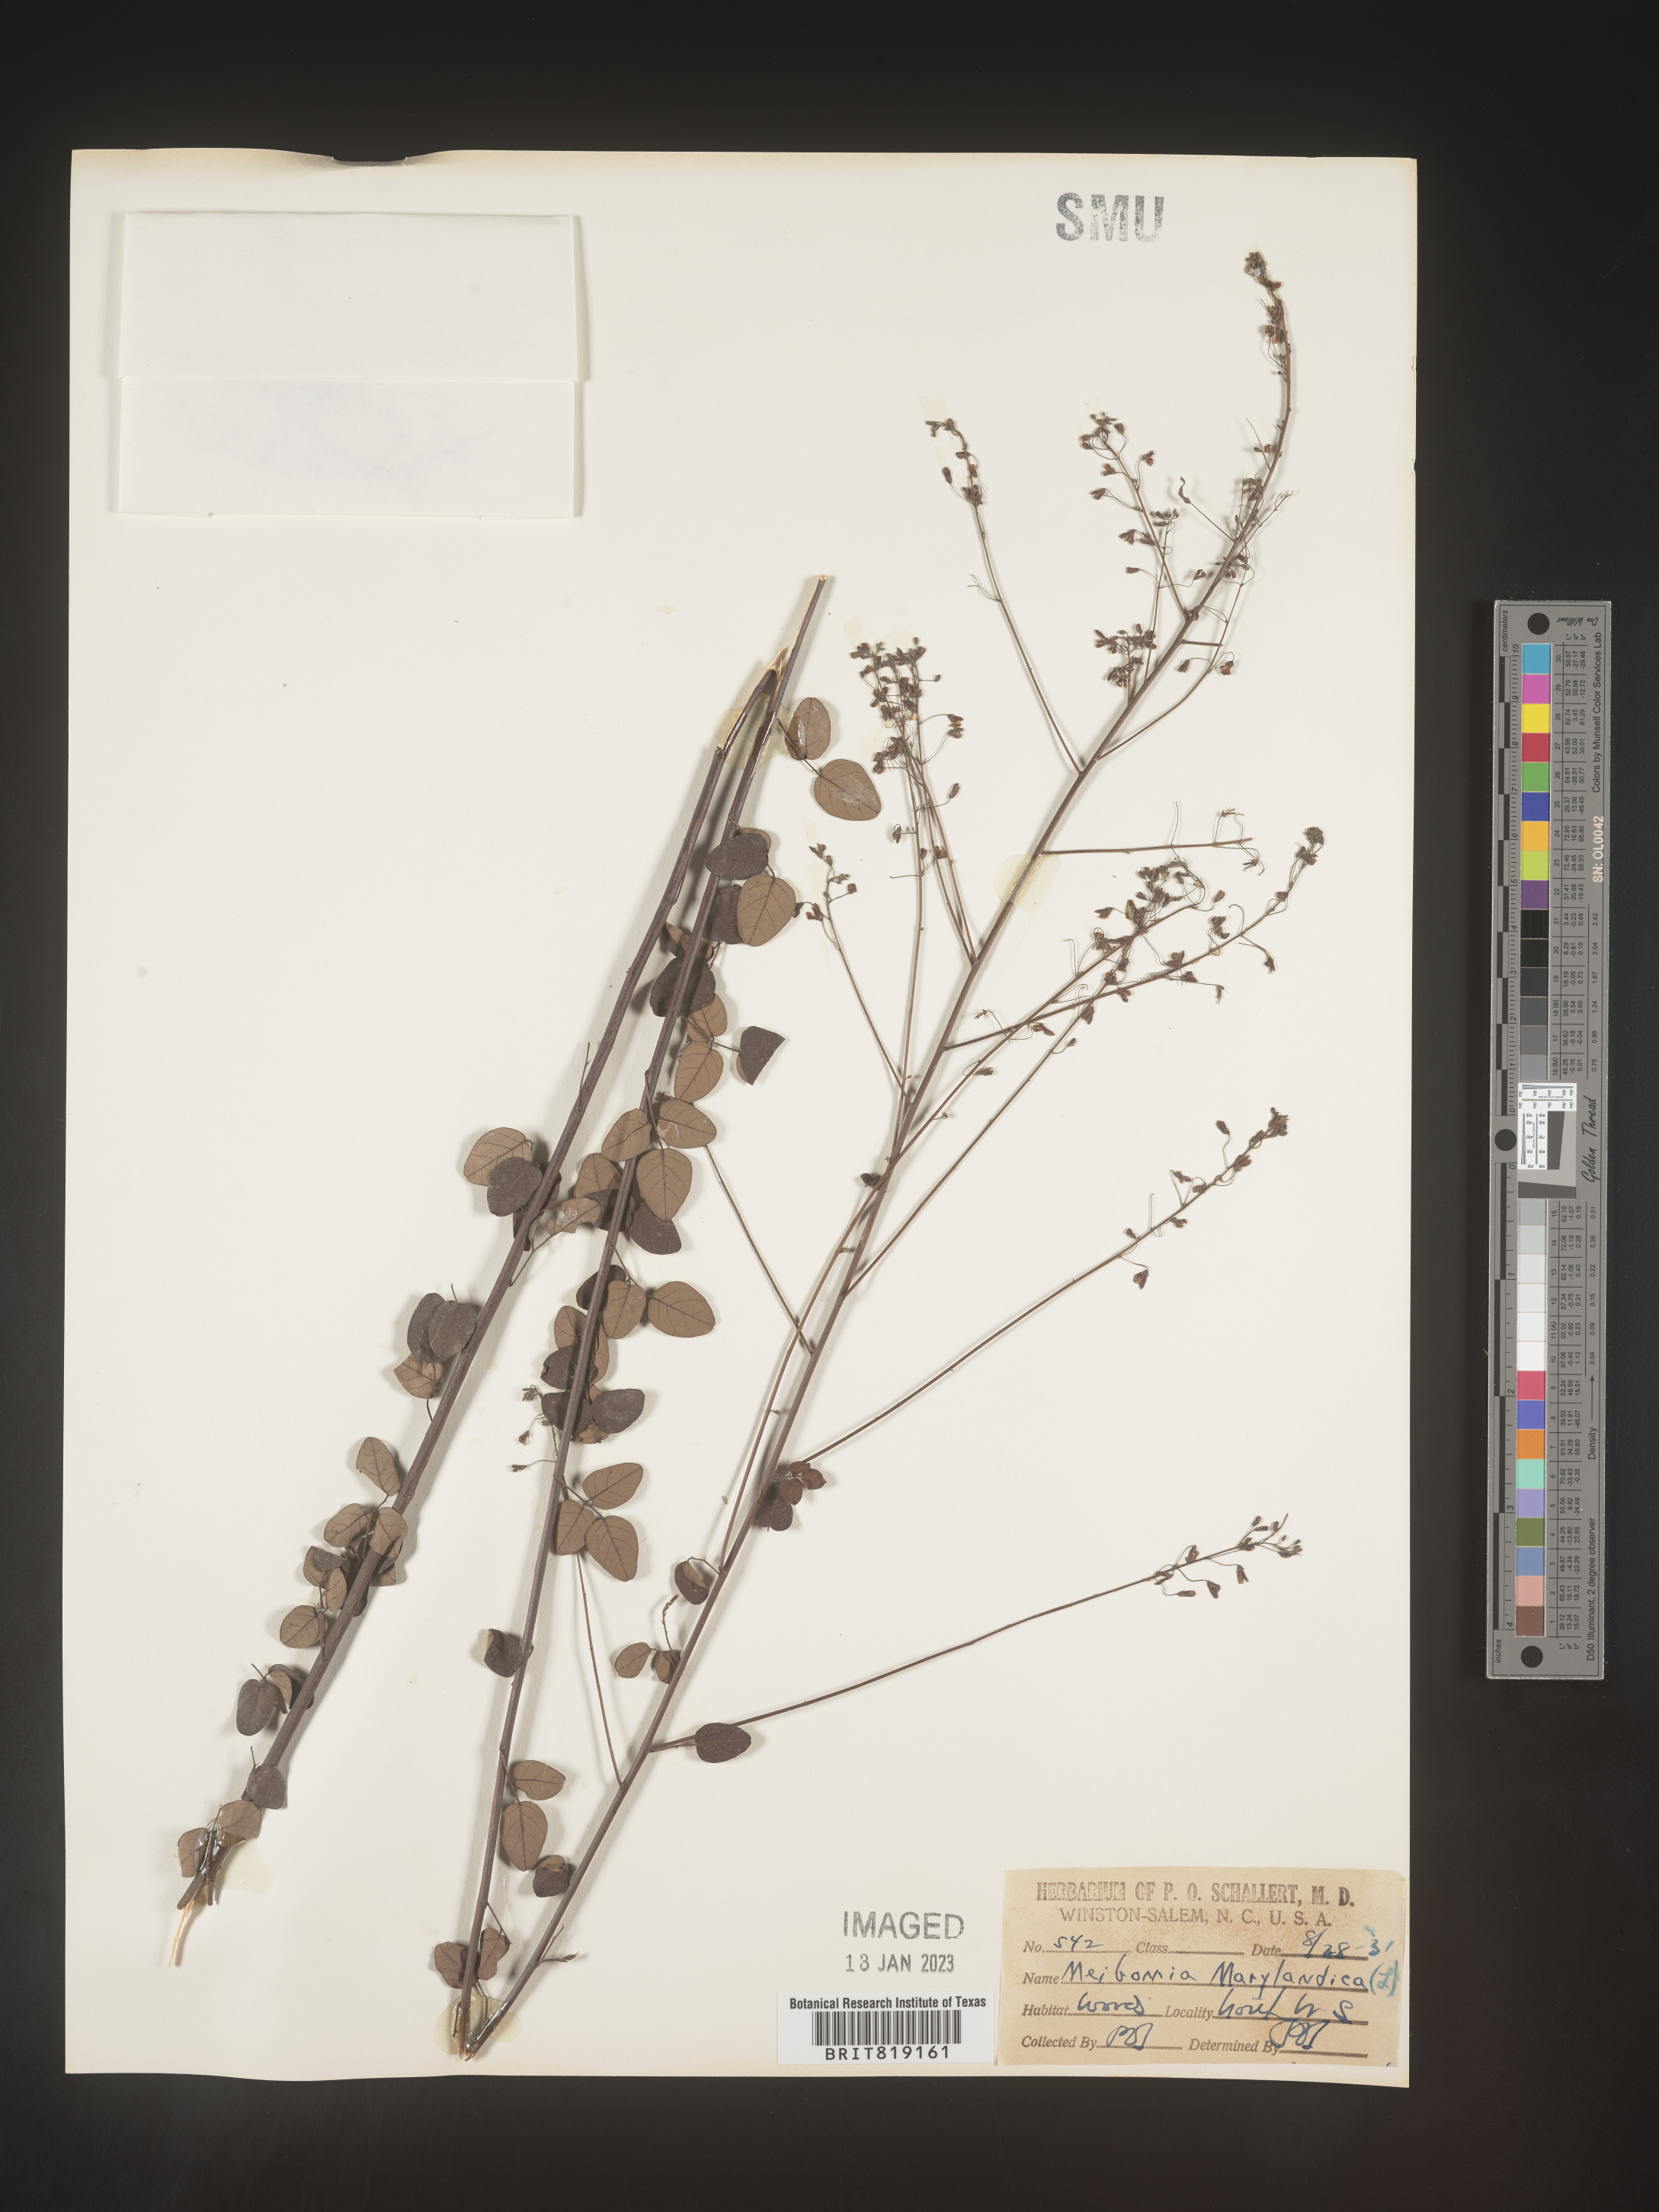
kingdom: Plantae
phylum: Tracheophyta
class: Magnoliopsida
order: Fabales
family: Fabaceae
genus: Desmodium
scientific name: Desmodium marilandicum
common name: Maryland tick-trefoil
